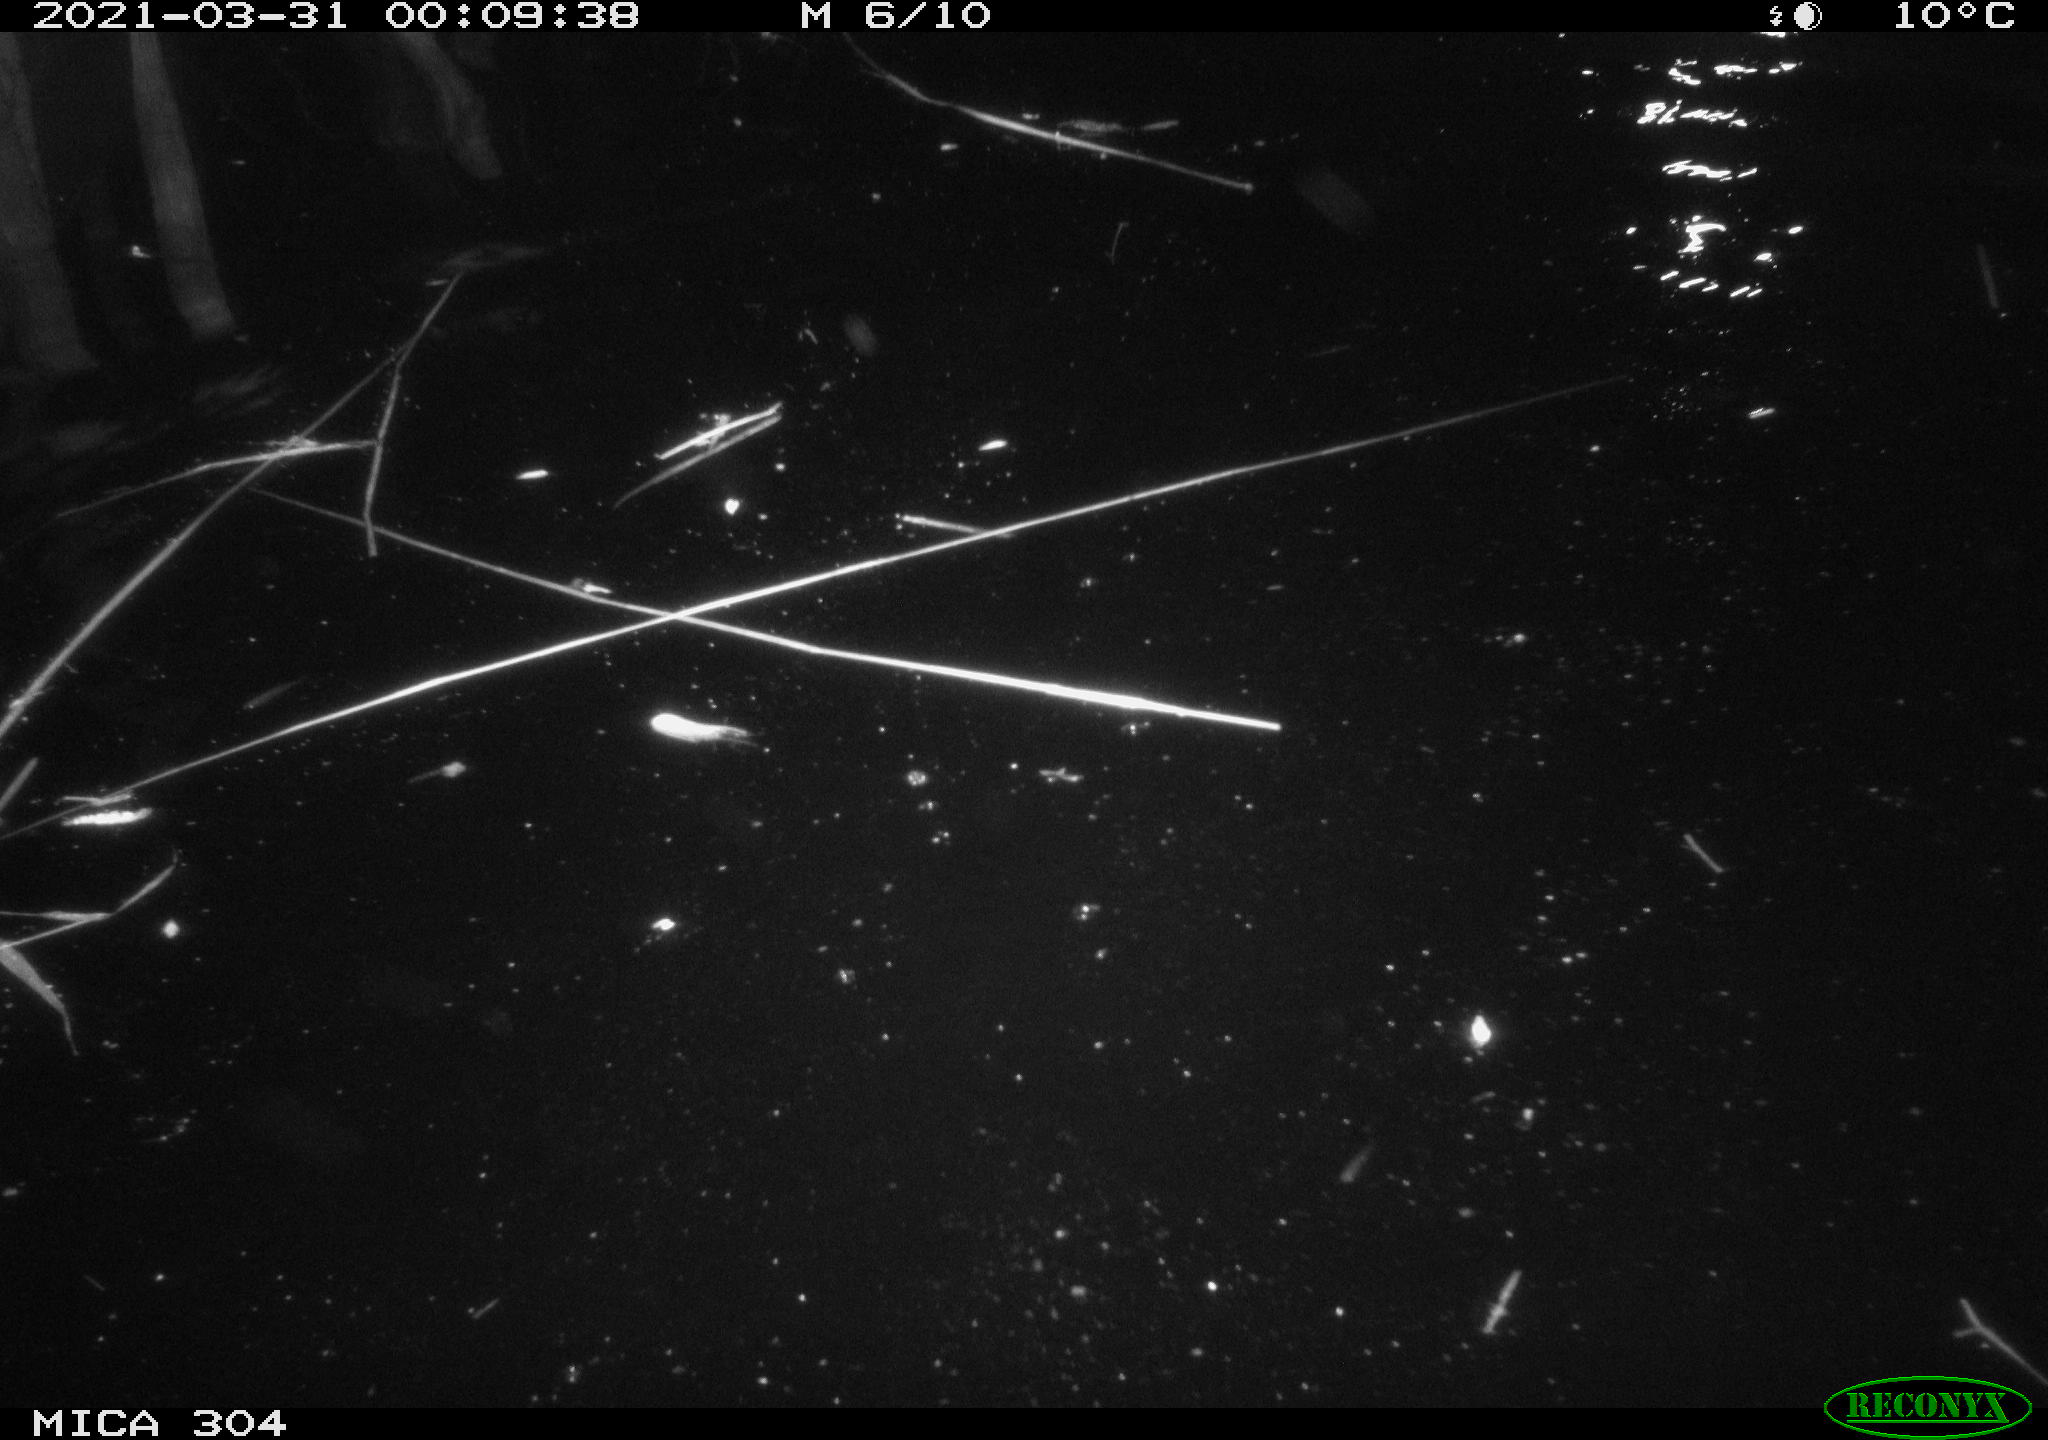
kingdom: Animalia
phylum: Chordata
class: Aves
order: Anseriformes
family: Anatidae
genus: Anas
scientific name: Anas platyrhynchos
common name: Mallard
